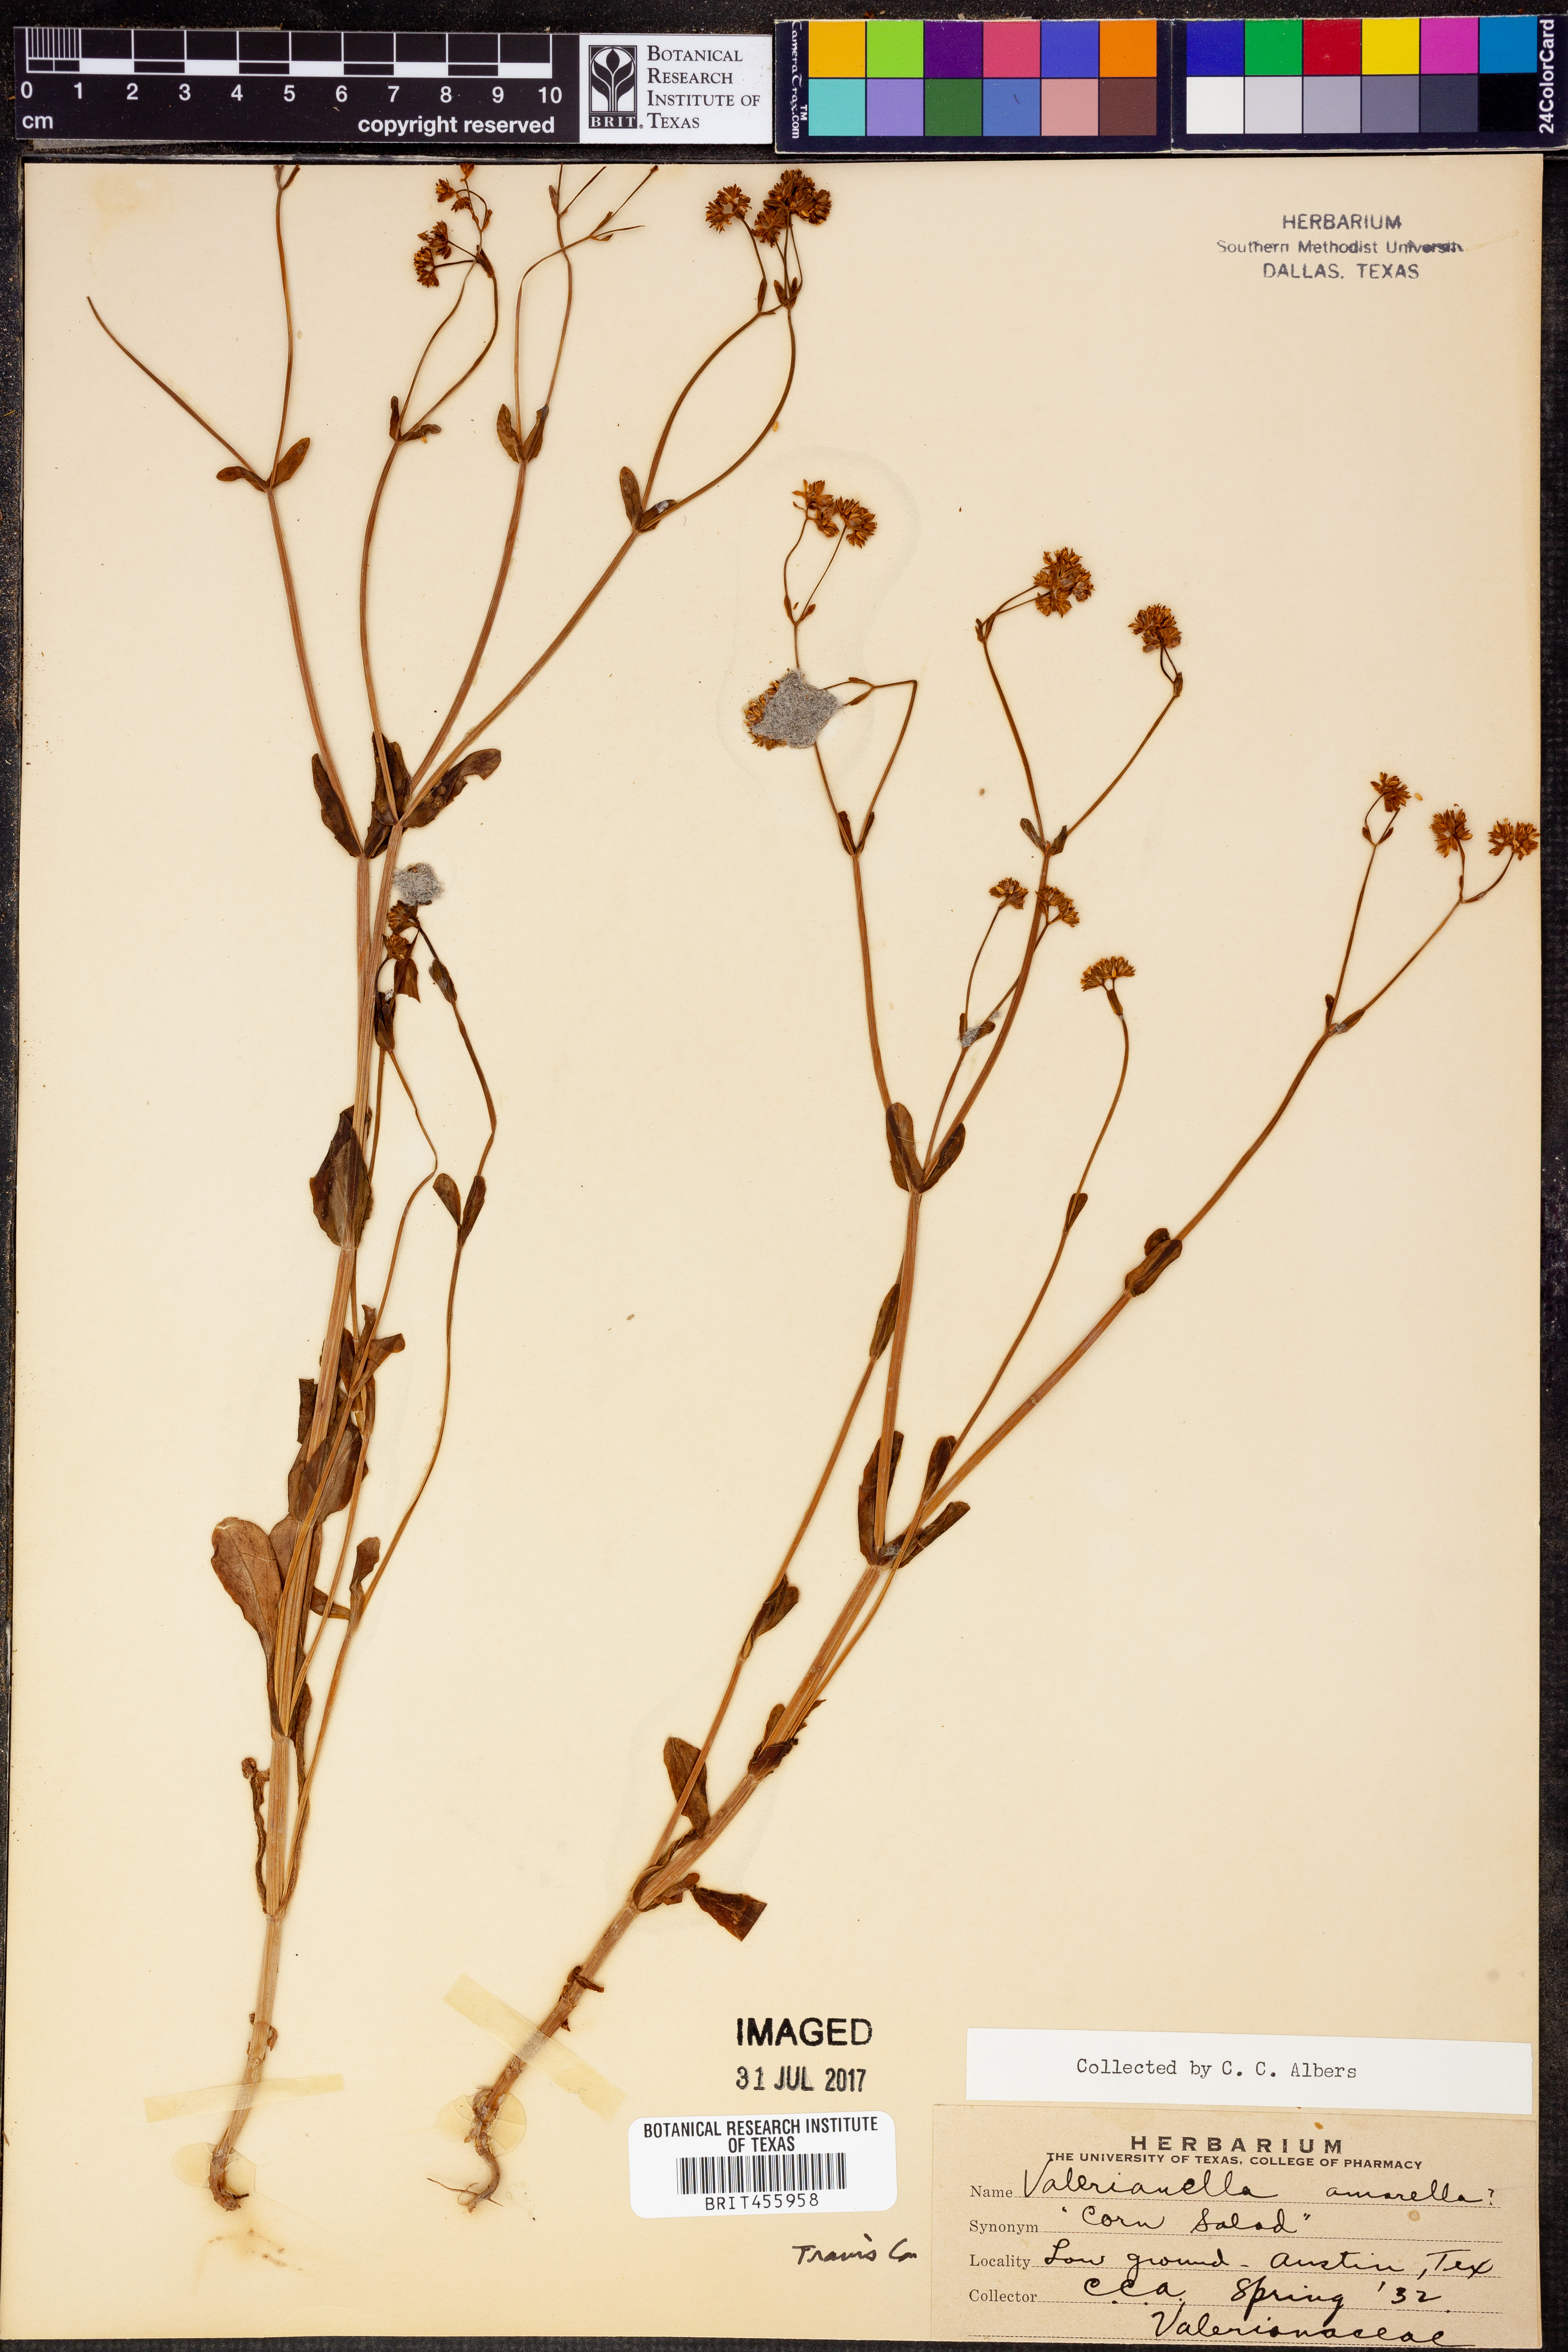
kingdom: Plantae
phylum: Tracheophyta
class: Magnoliopsida
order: Dipsacales
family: Caprifoliaceae
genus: Valerianella
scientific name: Valerianella amarella
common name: Hariy cornsalad
